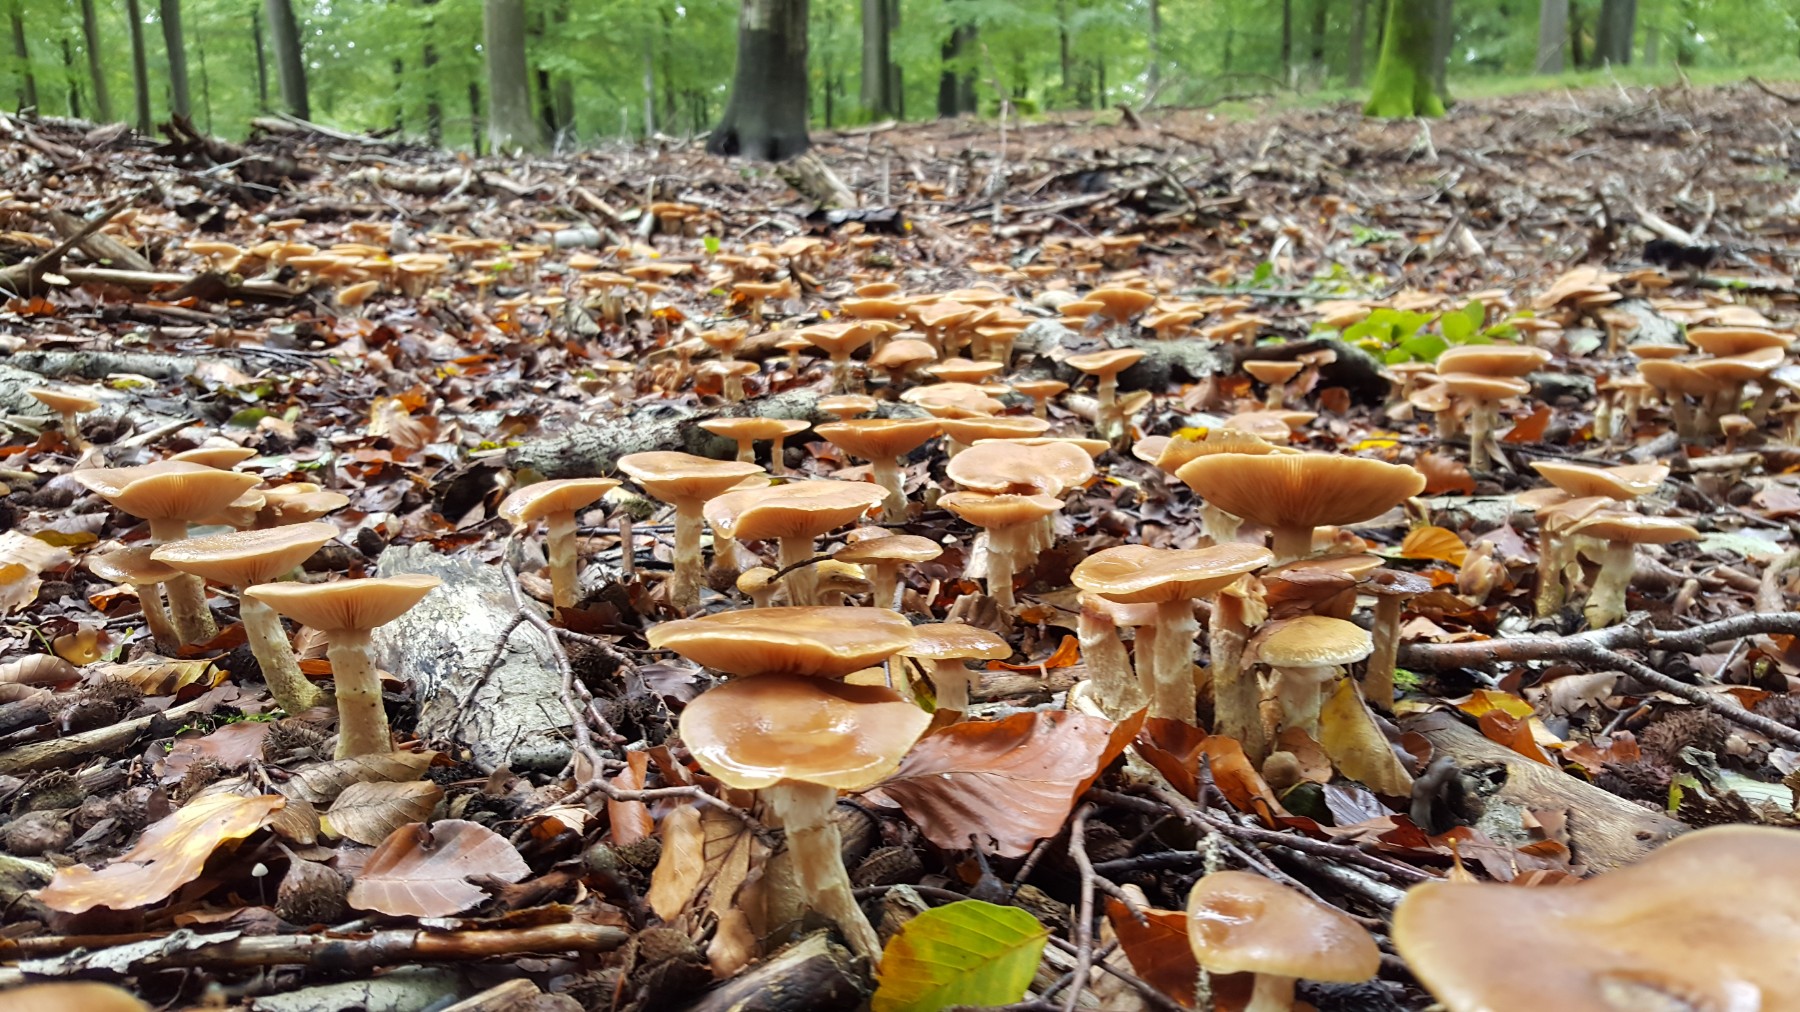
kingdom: Fungi
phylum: Basidiomycota
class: Agaricomycetes
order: Agaricales
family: Physalacriaceae
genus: Armillaria
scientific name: Armillaria lutea
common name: køllestokket honningsvamp
